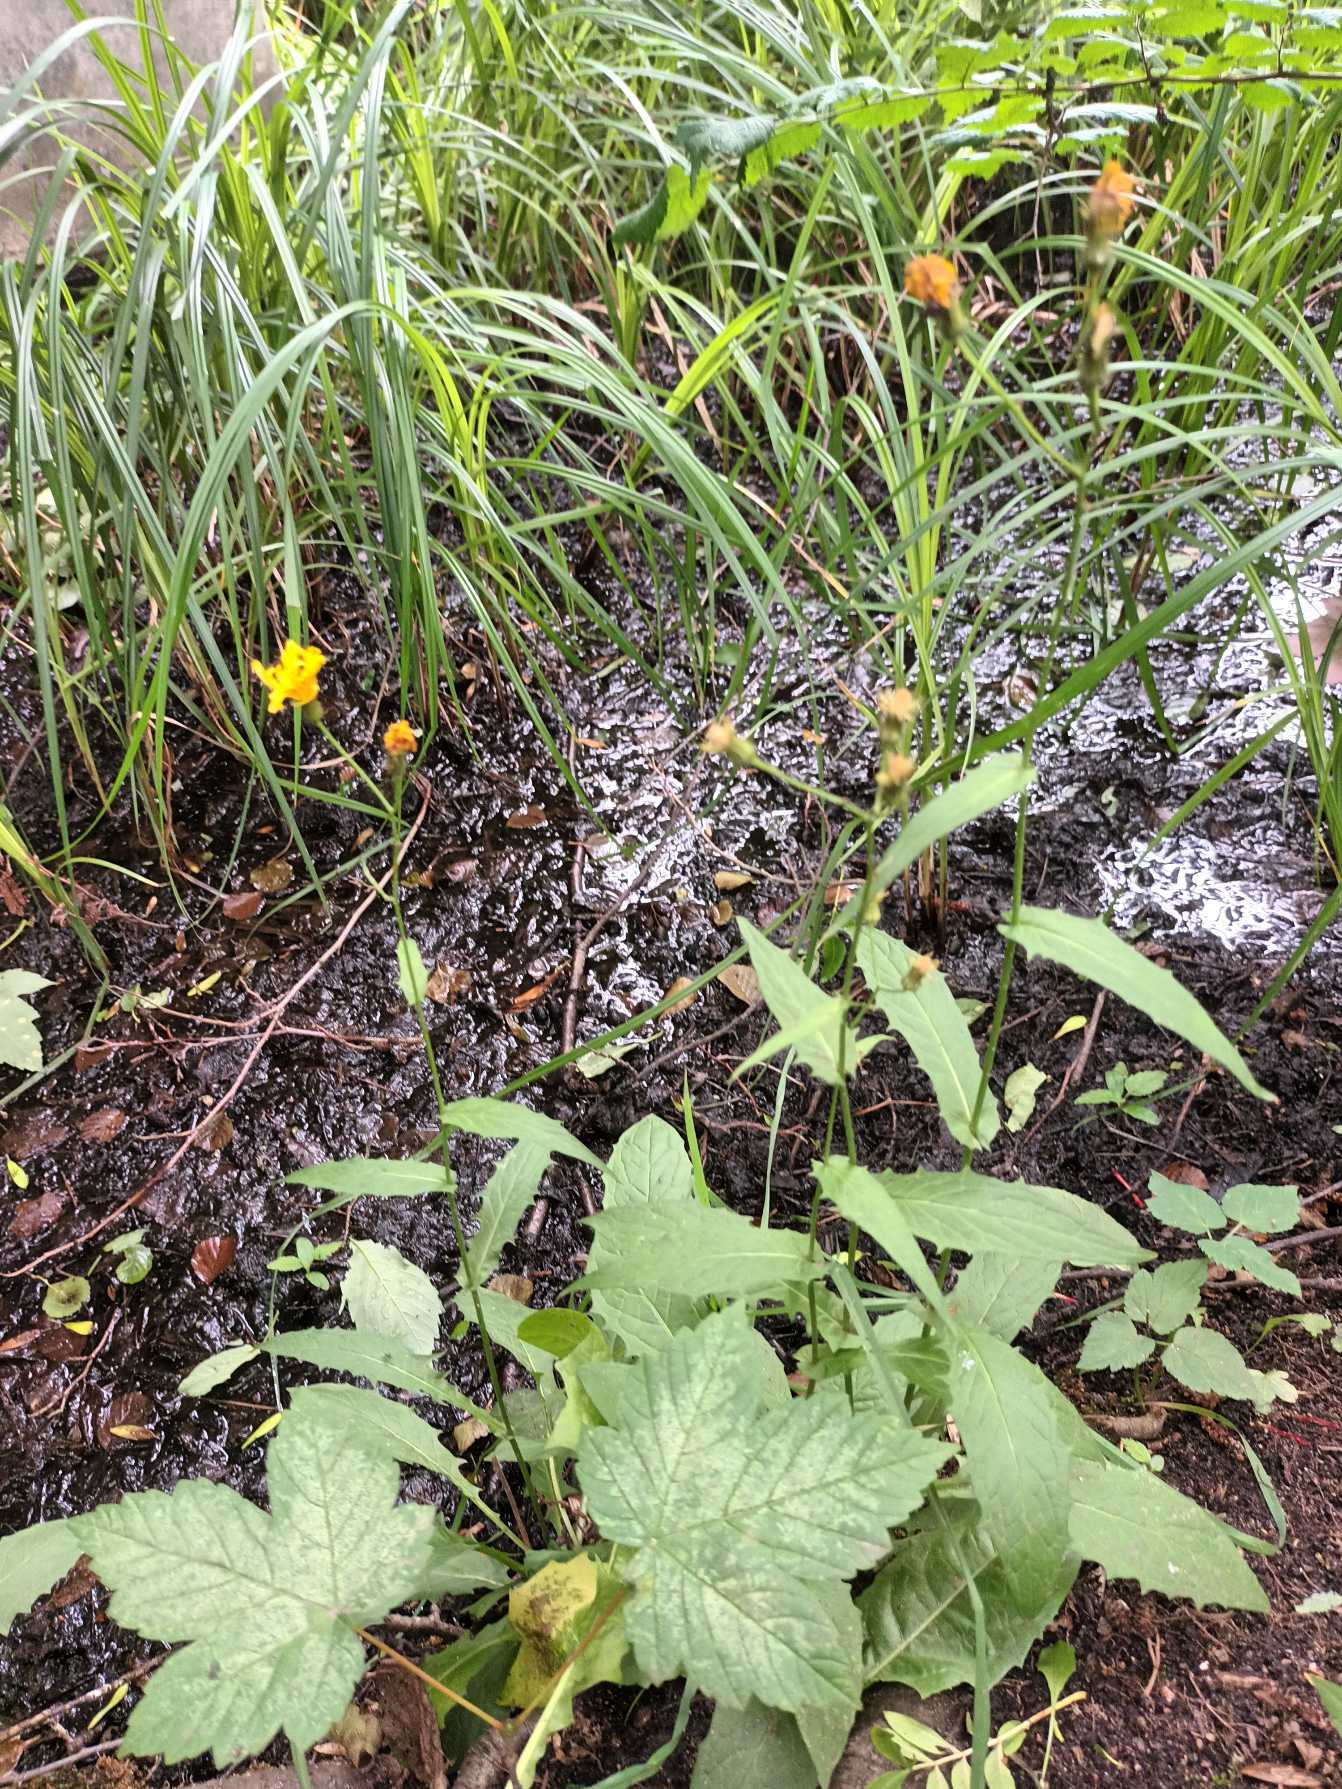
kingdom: Plantae
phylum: Tracheophyta
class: Magnoliopsida
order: Asterales
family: Asteraceae
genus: Crepis
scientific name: Crepis paludosa
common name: Kær-høgeskæg
